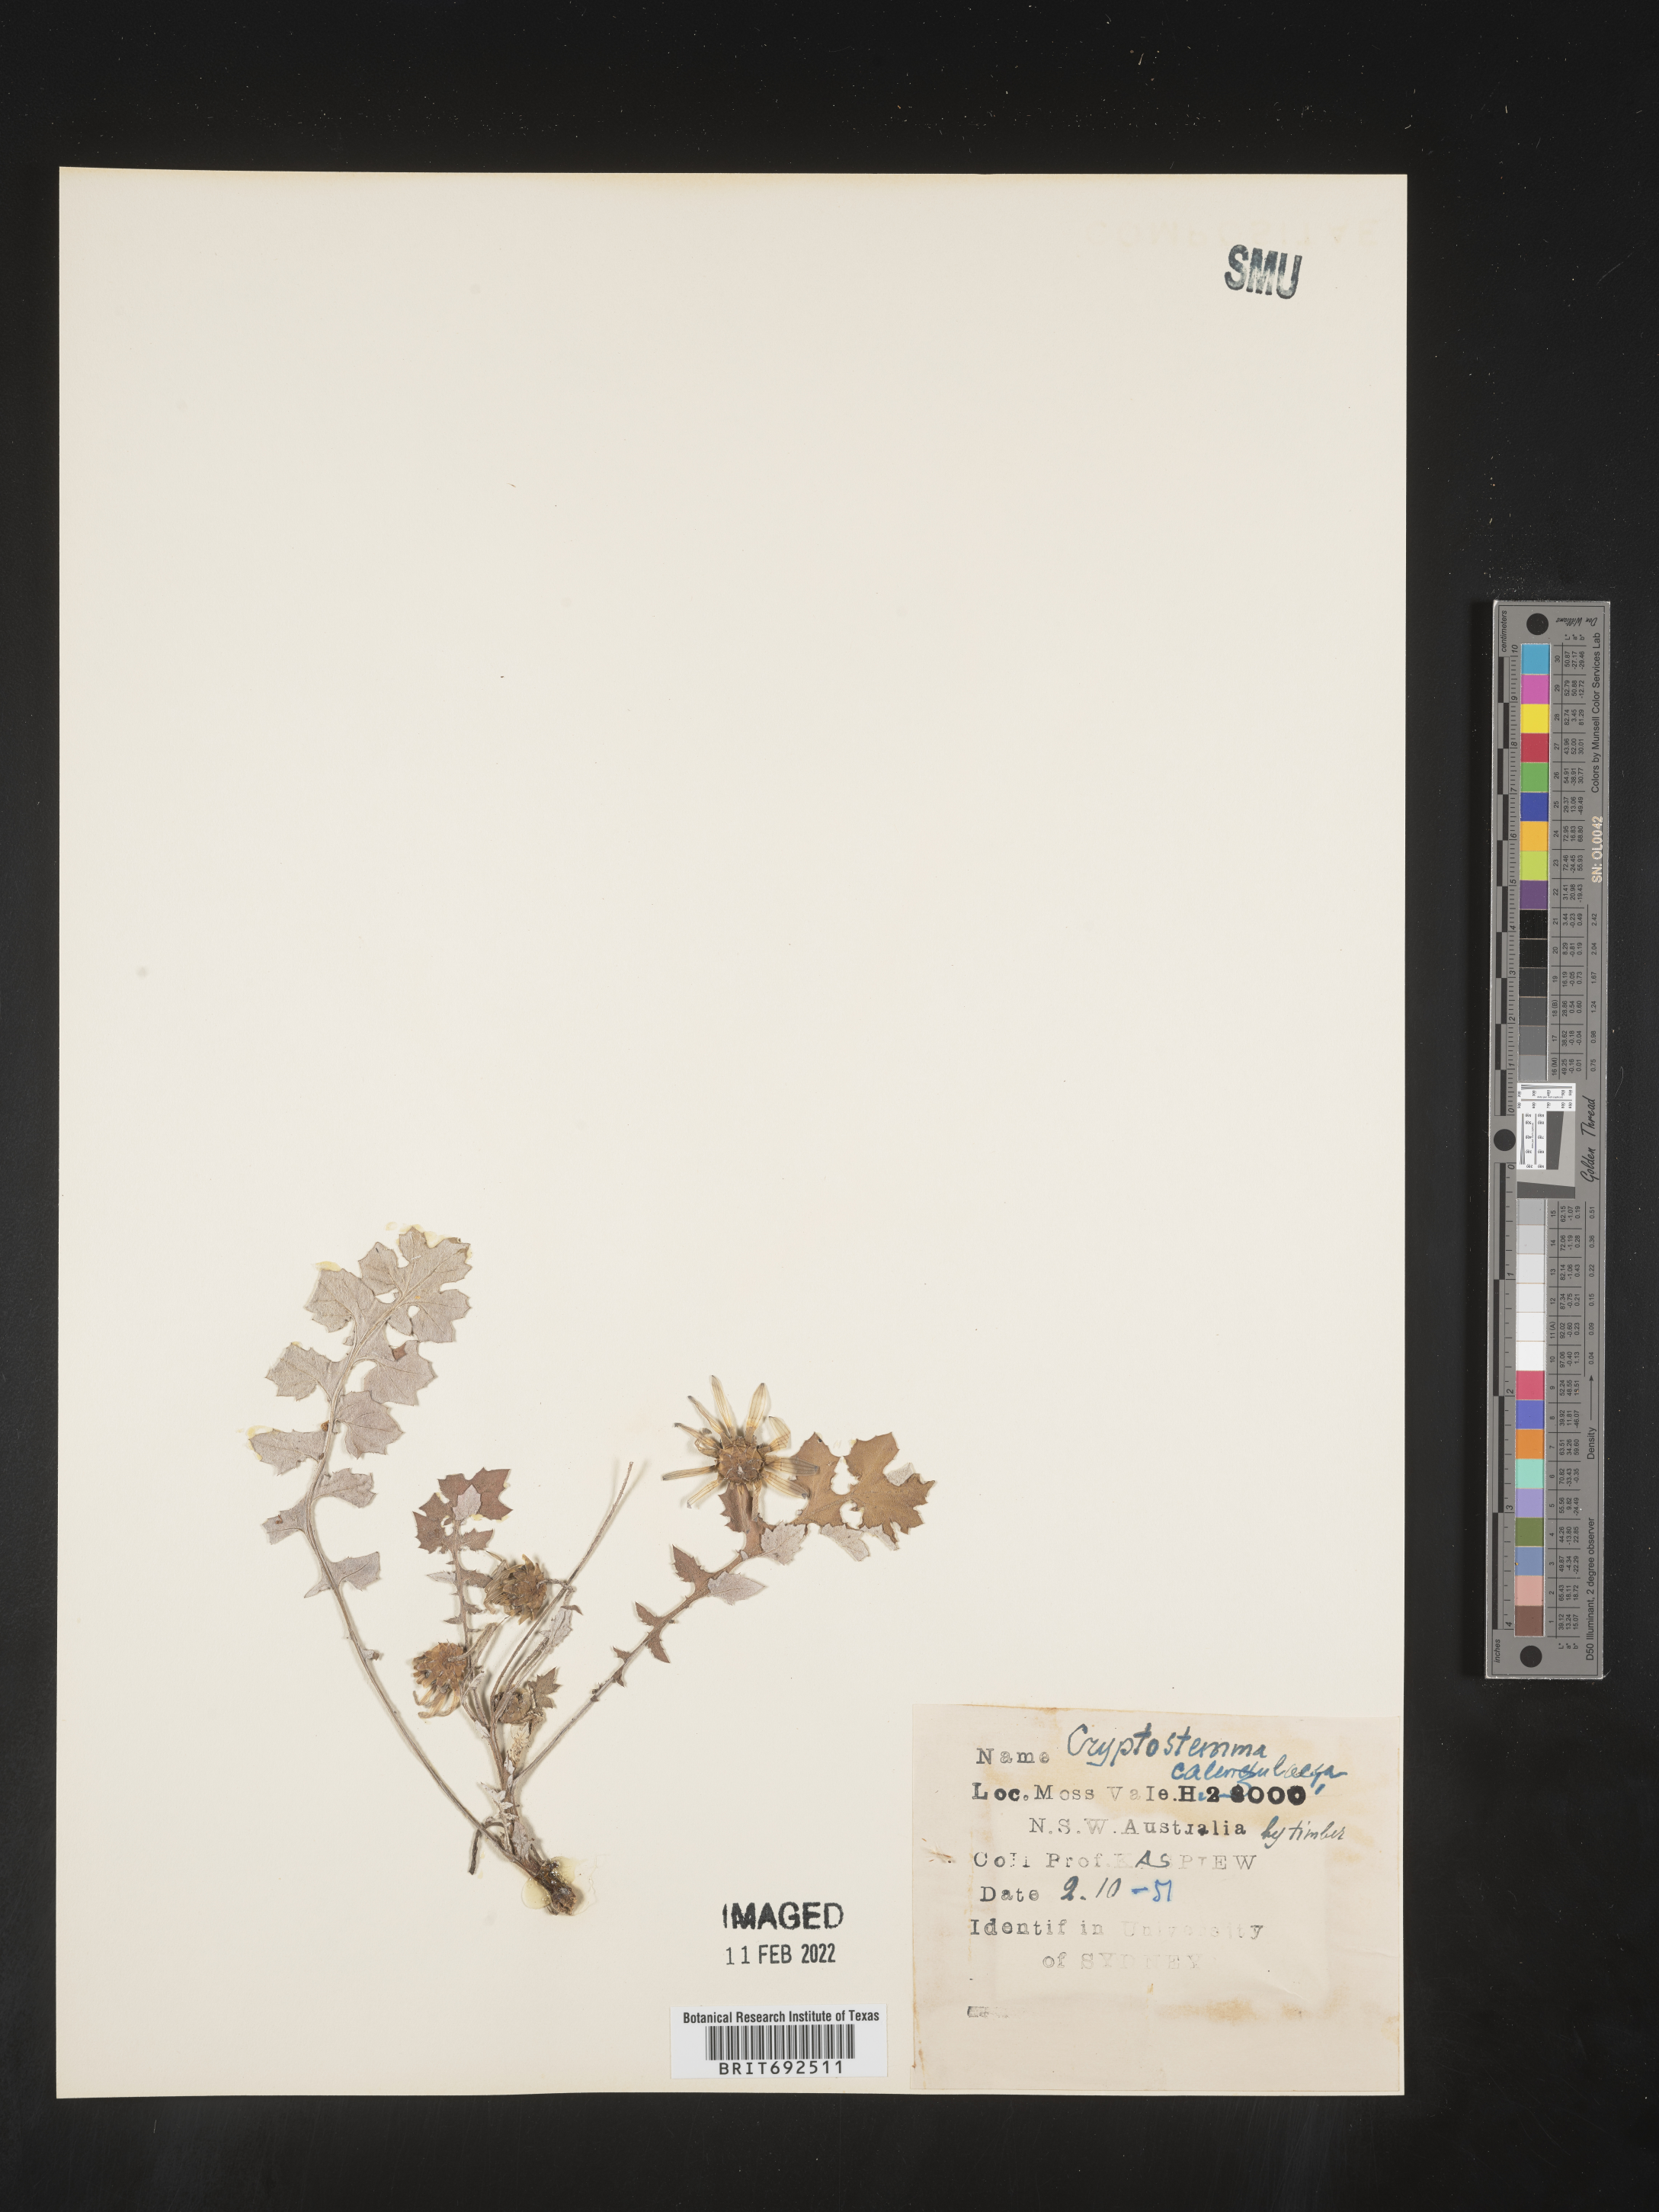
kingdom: Plantae
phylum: Tracheophyta
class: Magnoliopsida
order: Asterales
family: Asteraceae
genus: Arctotheca
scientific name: Arctotheca
